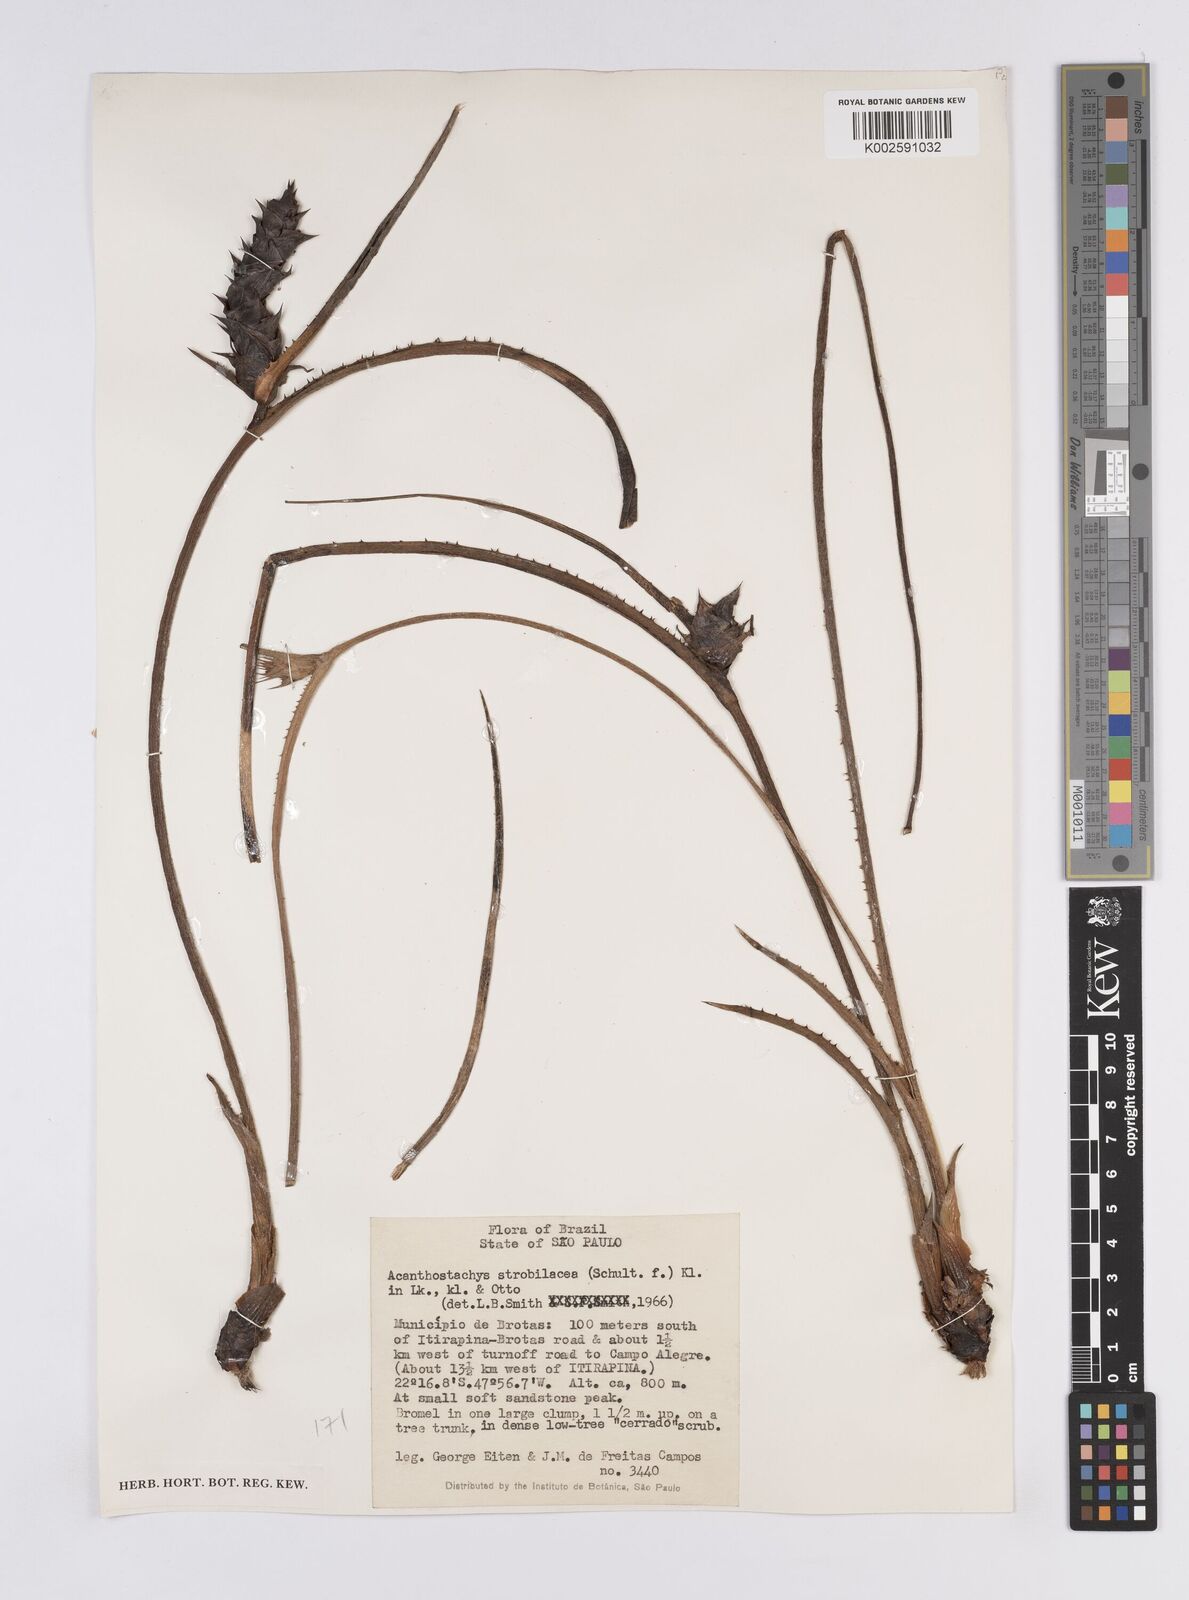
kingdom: Plantae
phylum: Tracheophyta
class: Liliopsida
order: Poales
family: Bromeliaceae
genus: Acanthostachys
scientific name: Acanthostachys strobilacea
